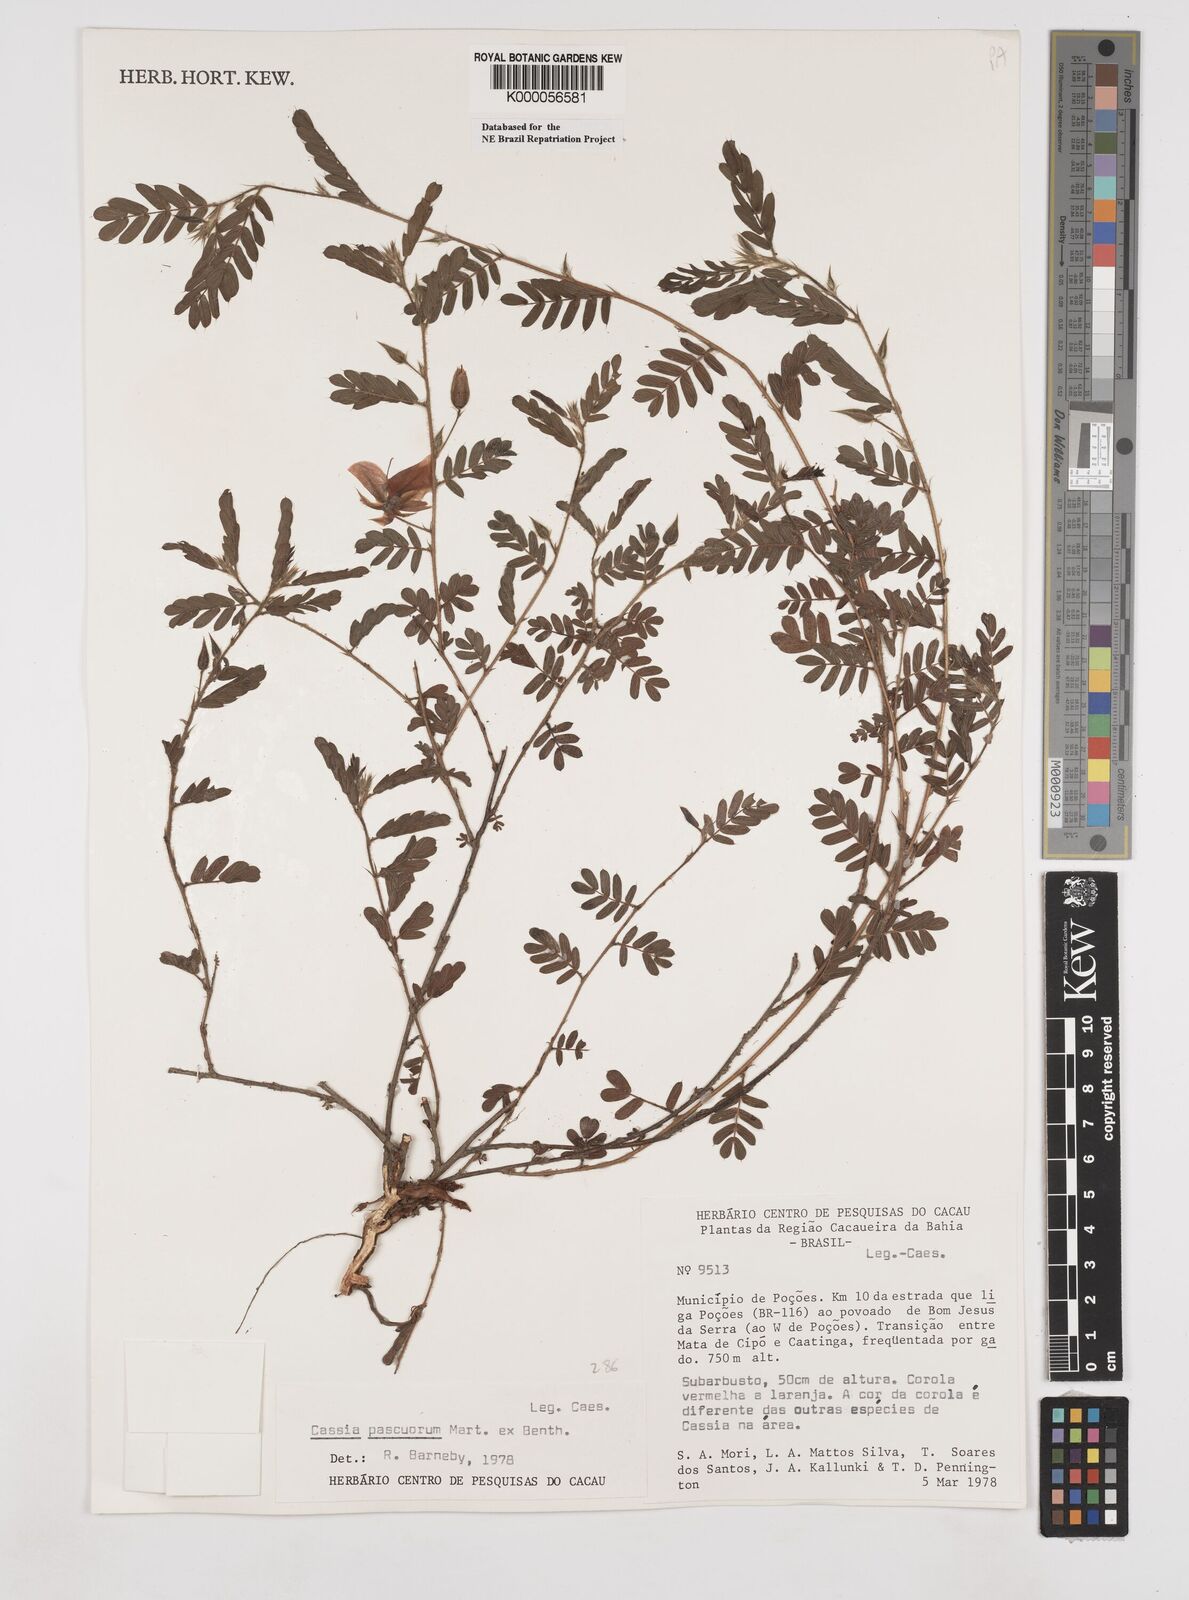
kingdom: Plantae
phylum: Tracheophyta
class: Magnoliopsida
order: Fabales
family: Fabaceae
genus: Chamaecrista
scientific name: Chamaecrista pascuorum
